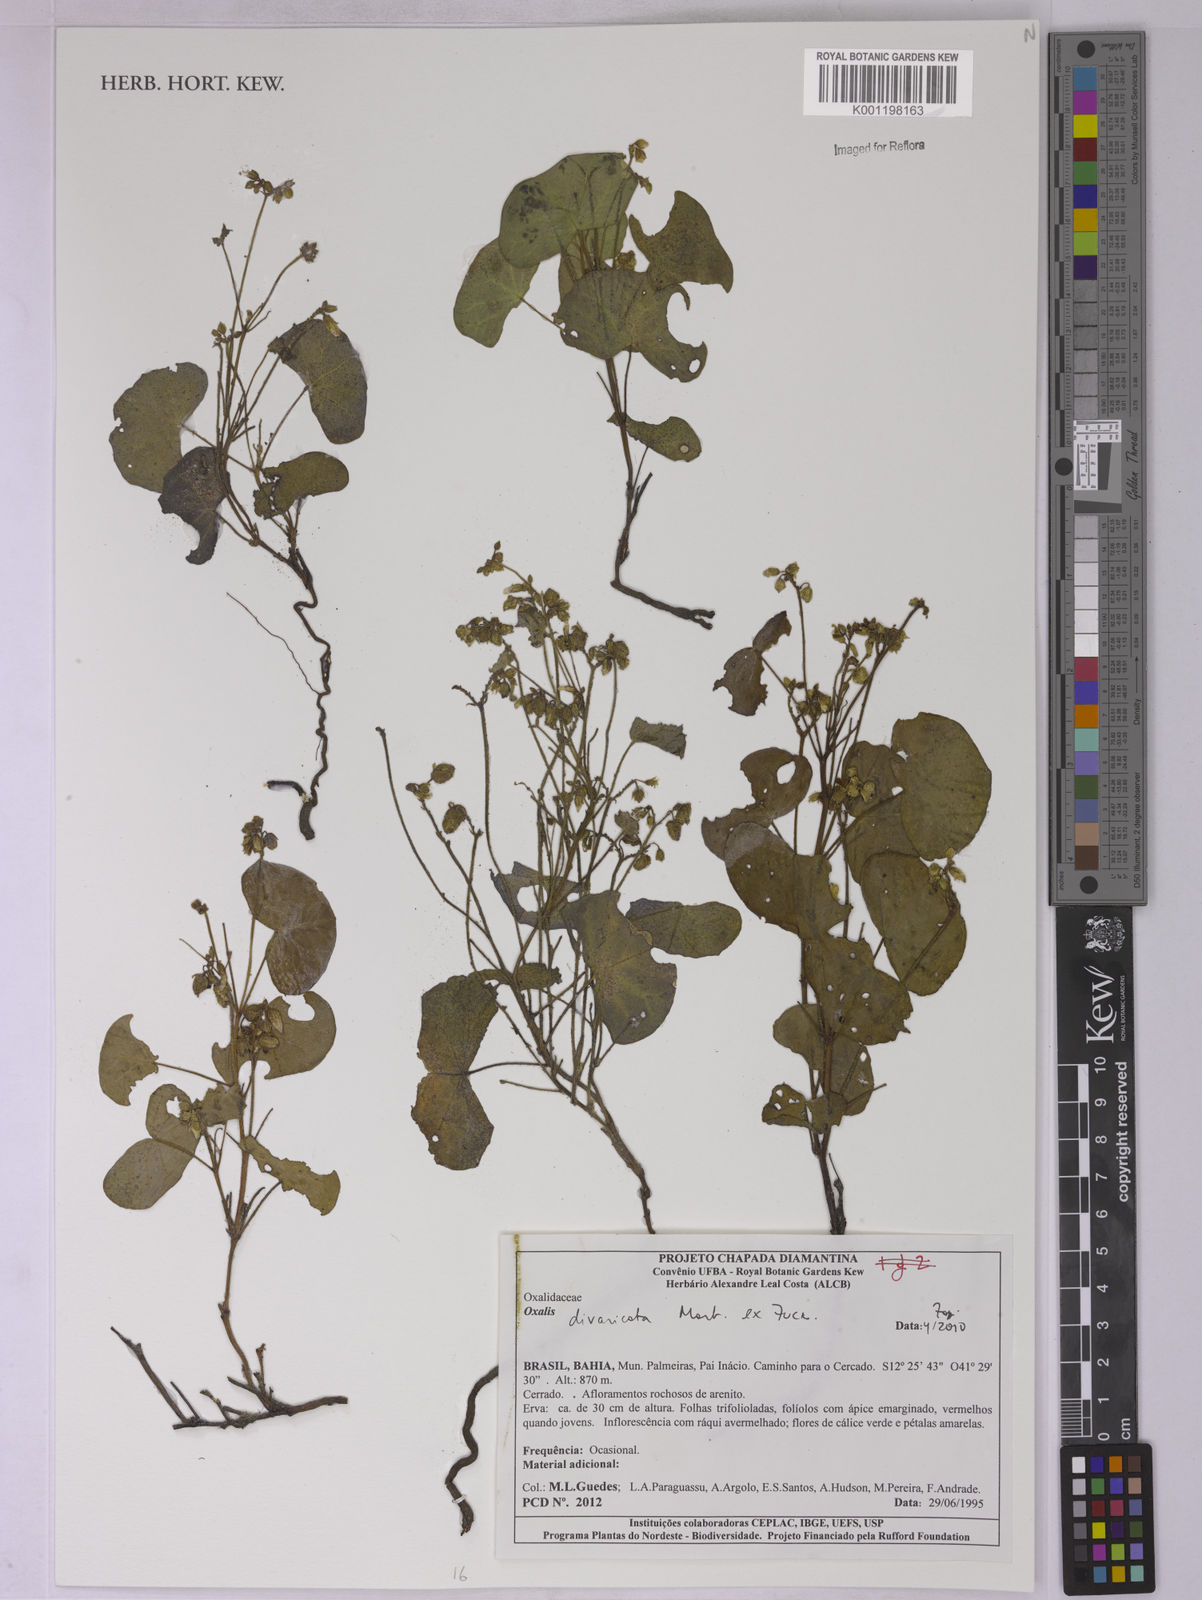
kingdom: Plantae
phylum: Tracheophyta
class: Magnoliopsida
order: Oxalidales
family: Oxalidaceae
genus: Oxalis
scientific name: Oxalis divaricata
